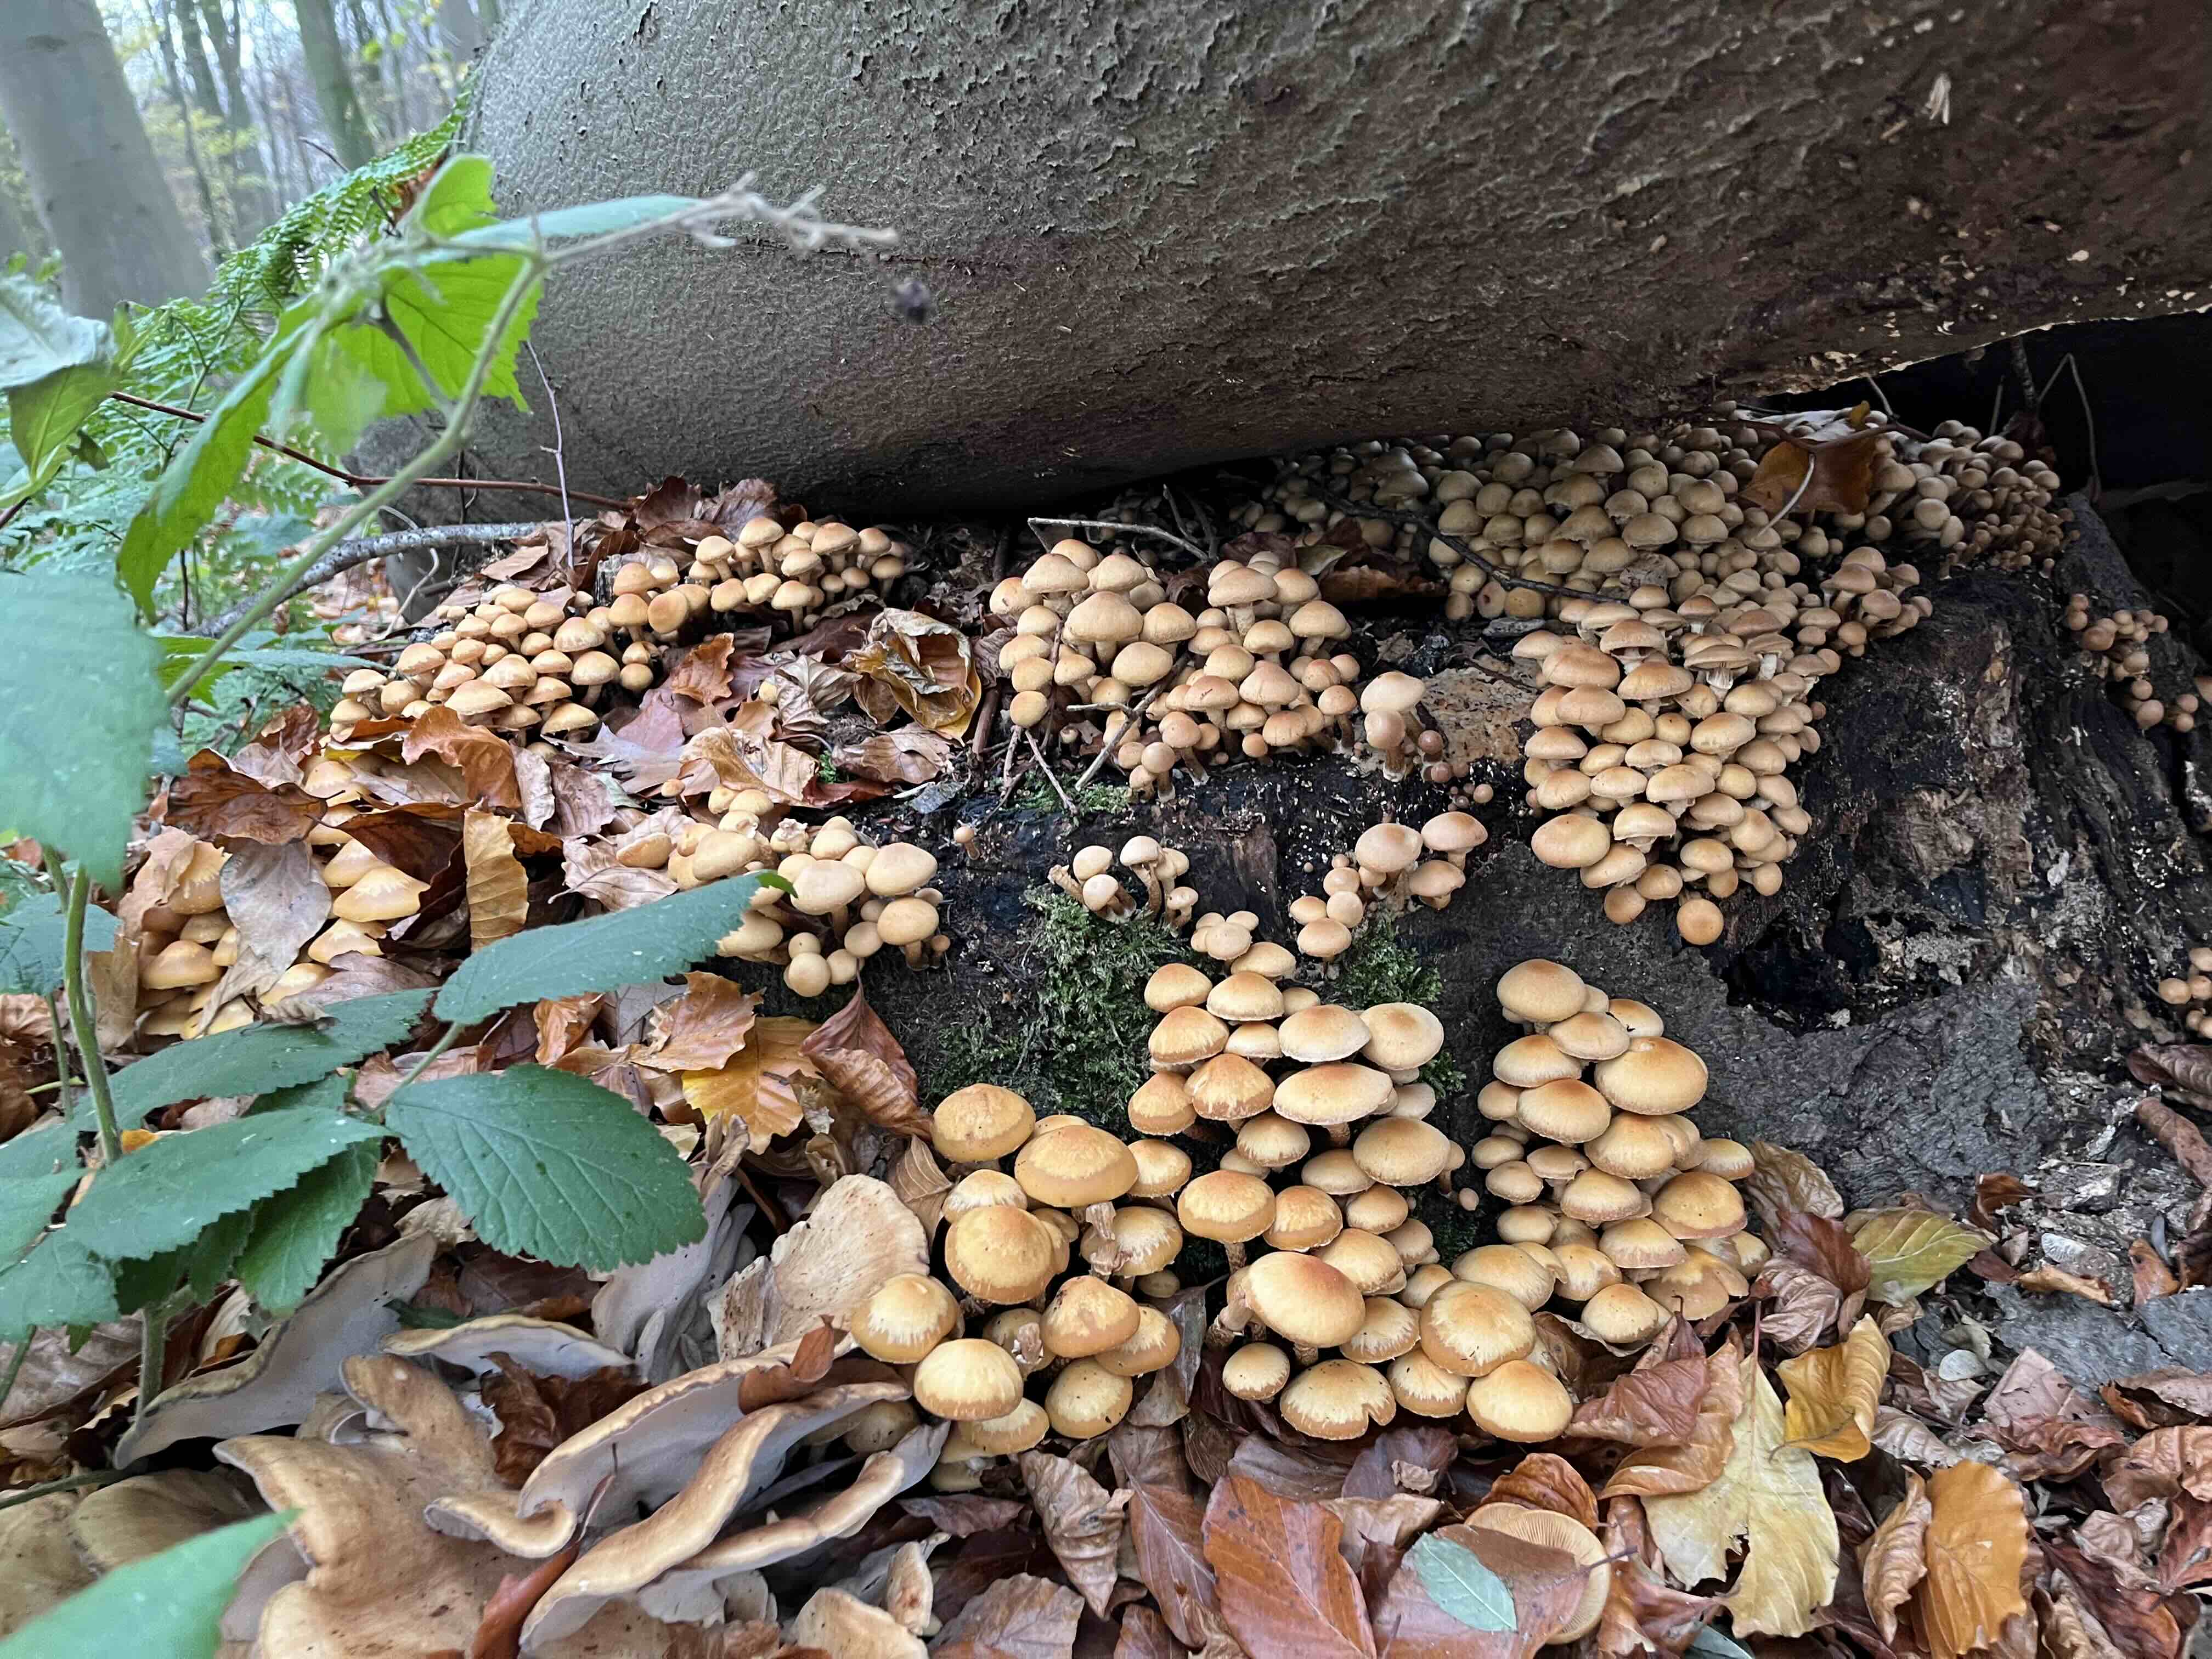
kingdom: Fungi
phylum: Basidiomycota
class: Agaricomycetes
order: Agaricales
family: Strophariaceae
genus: Kuehneromyces
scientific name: Kuehneromyces mutabilis
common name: foranderlig skælhat
